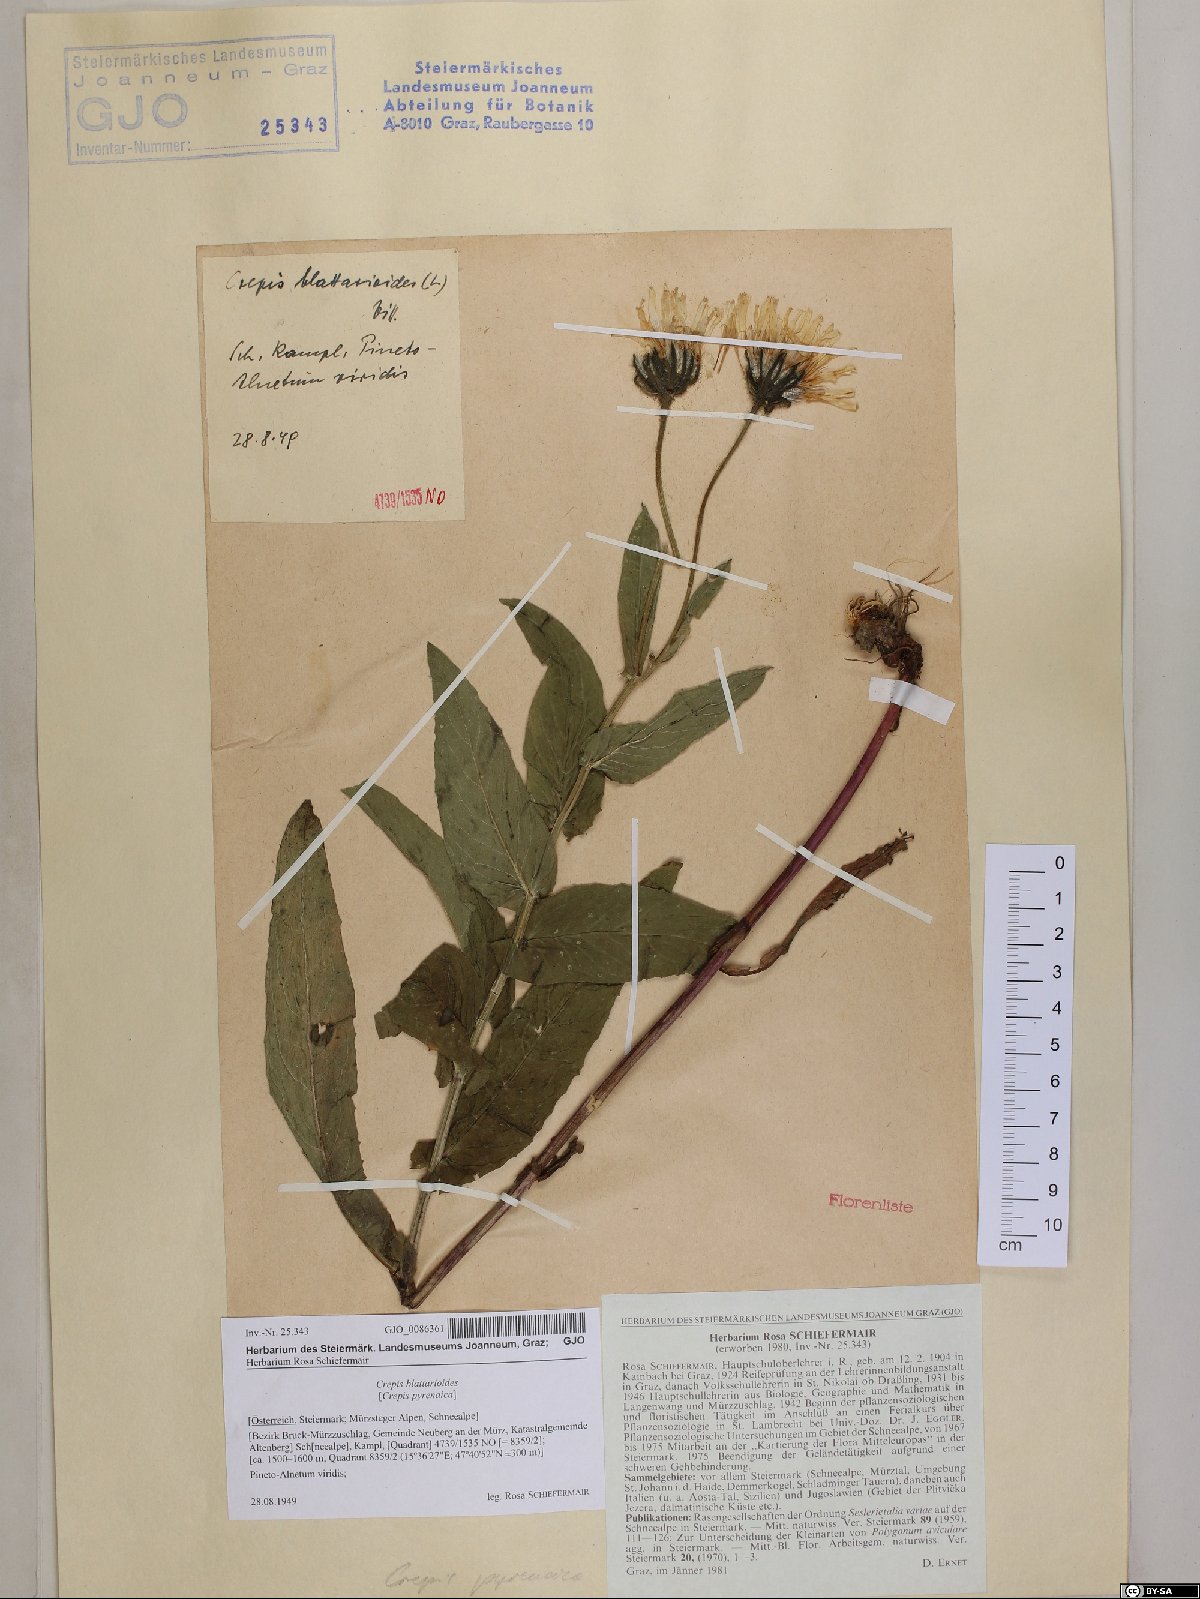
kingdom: Plantae
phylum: Tracheophyta
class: Magnoliopsida
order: Asterales
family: Asteraceae
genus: Crepis
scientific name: Crepis blattarioides
